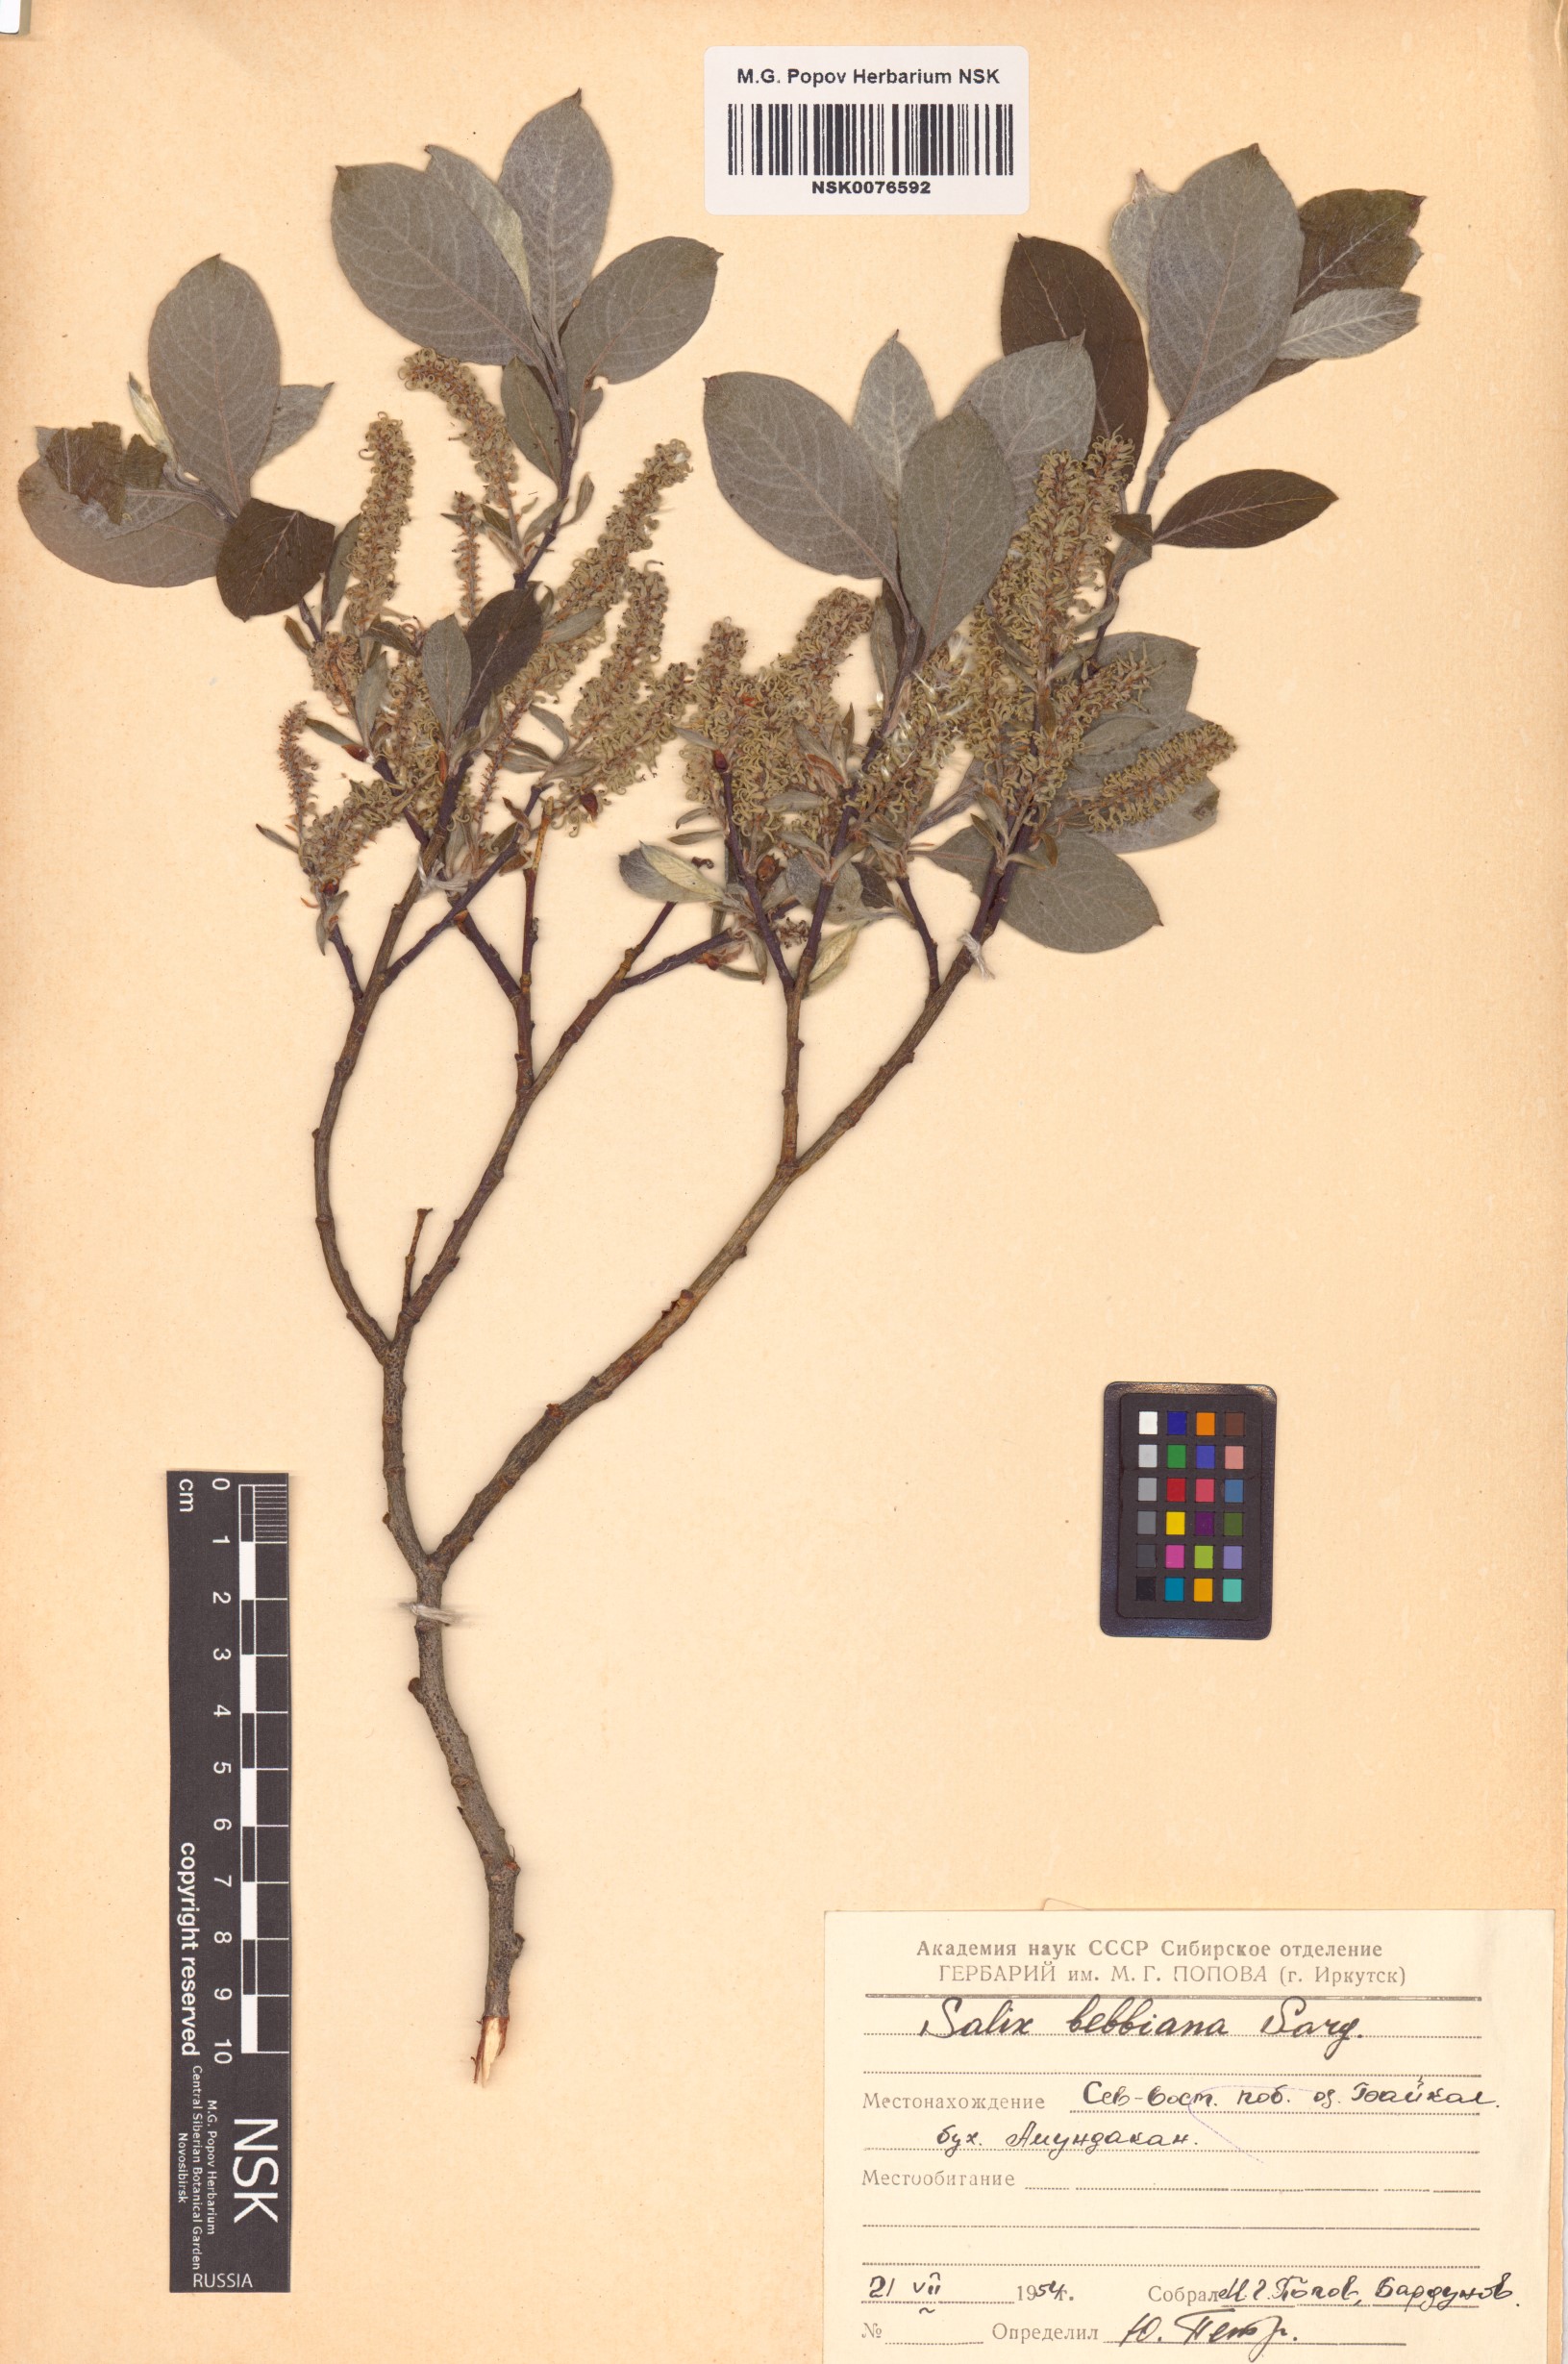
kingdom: Plantae
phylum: Tracheophyta
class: Magnoliopsida
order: Malpighiales
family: Salicaceae
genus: Salix
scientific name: Salix bebbiana
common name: Bebb's willow
